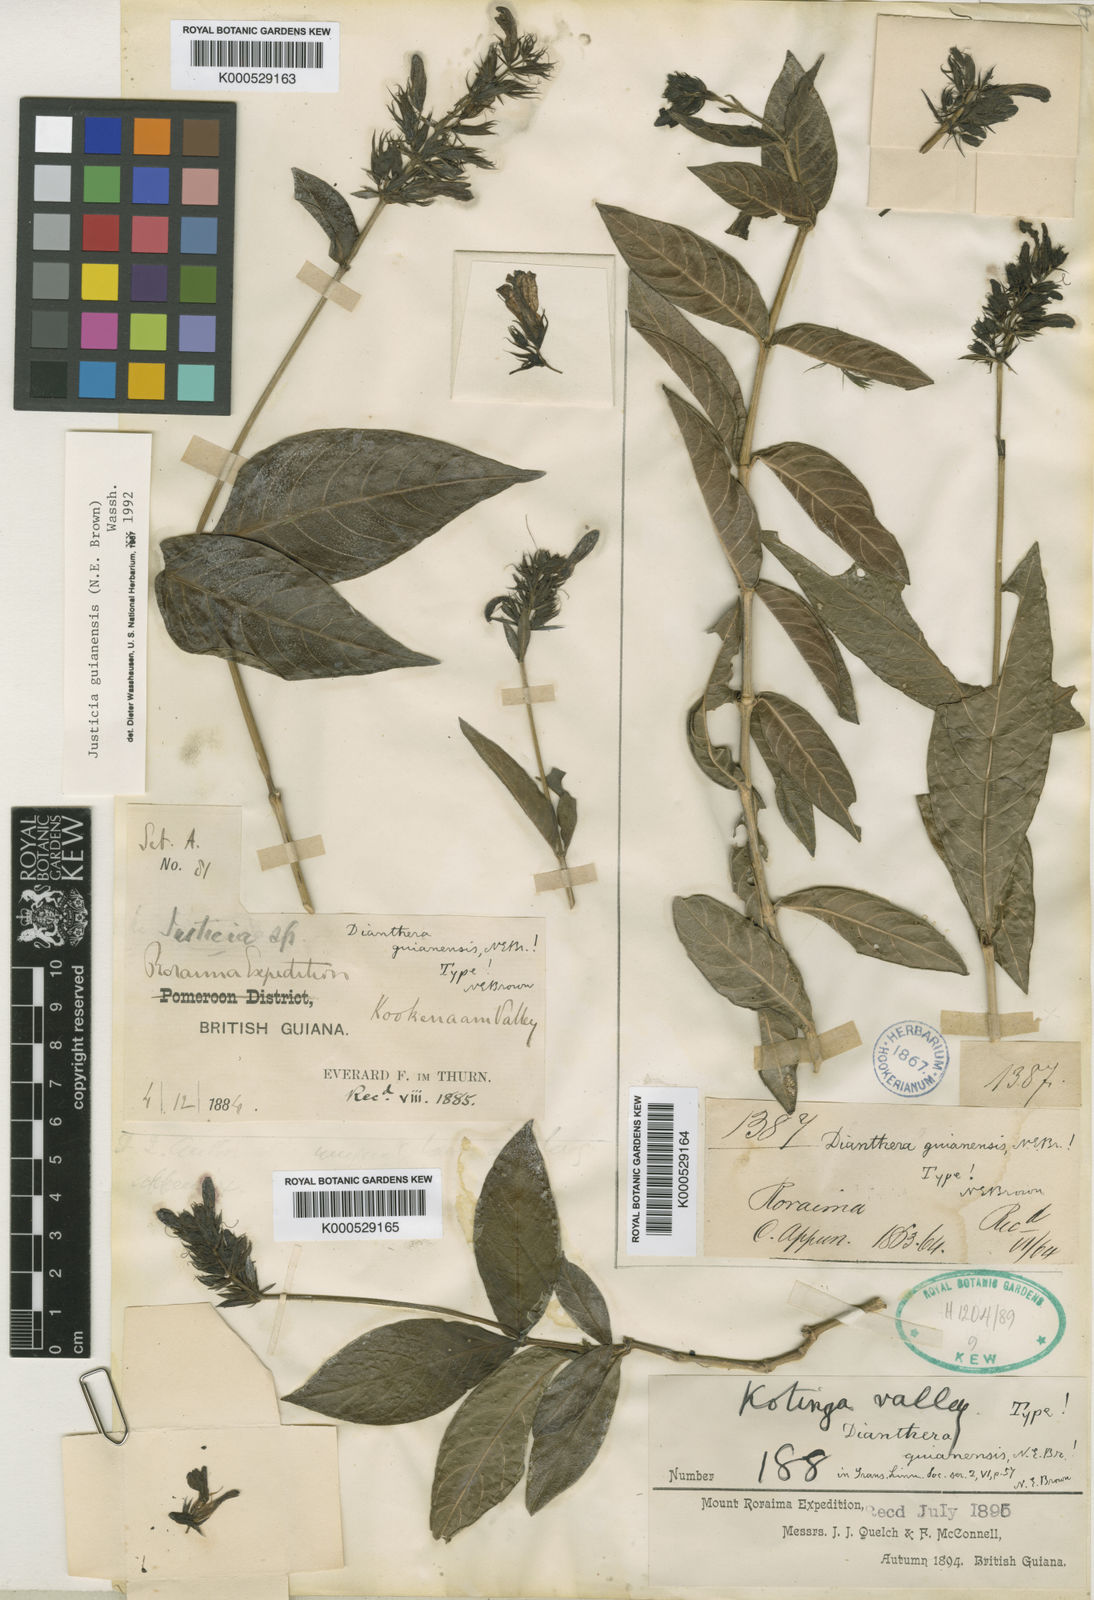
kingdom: Plantae
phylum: Tracheophyta
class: Magnoliopsida
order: Lamiales
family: Acanthaceae
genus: Dianthera
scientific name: Dianthera guianensis
